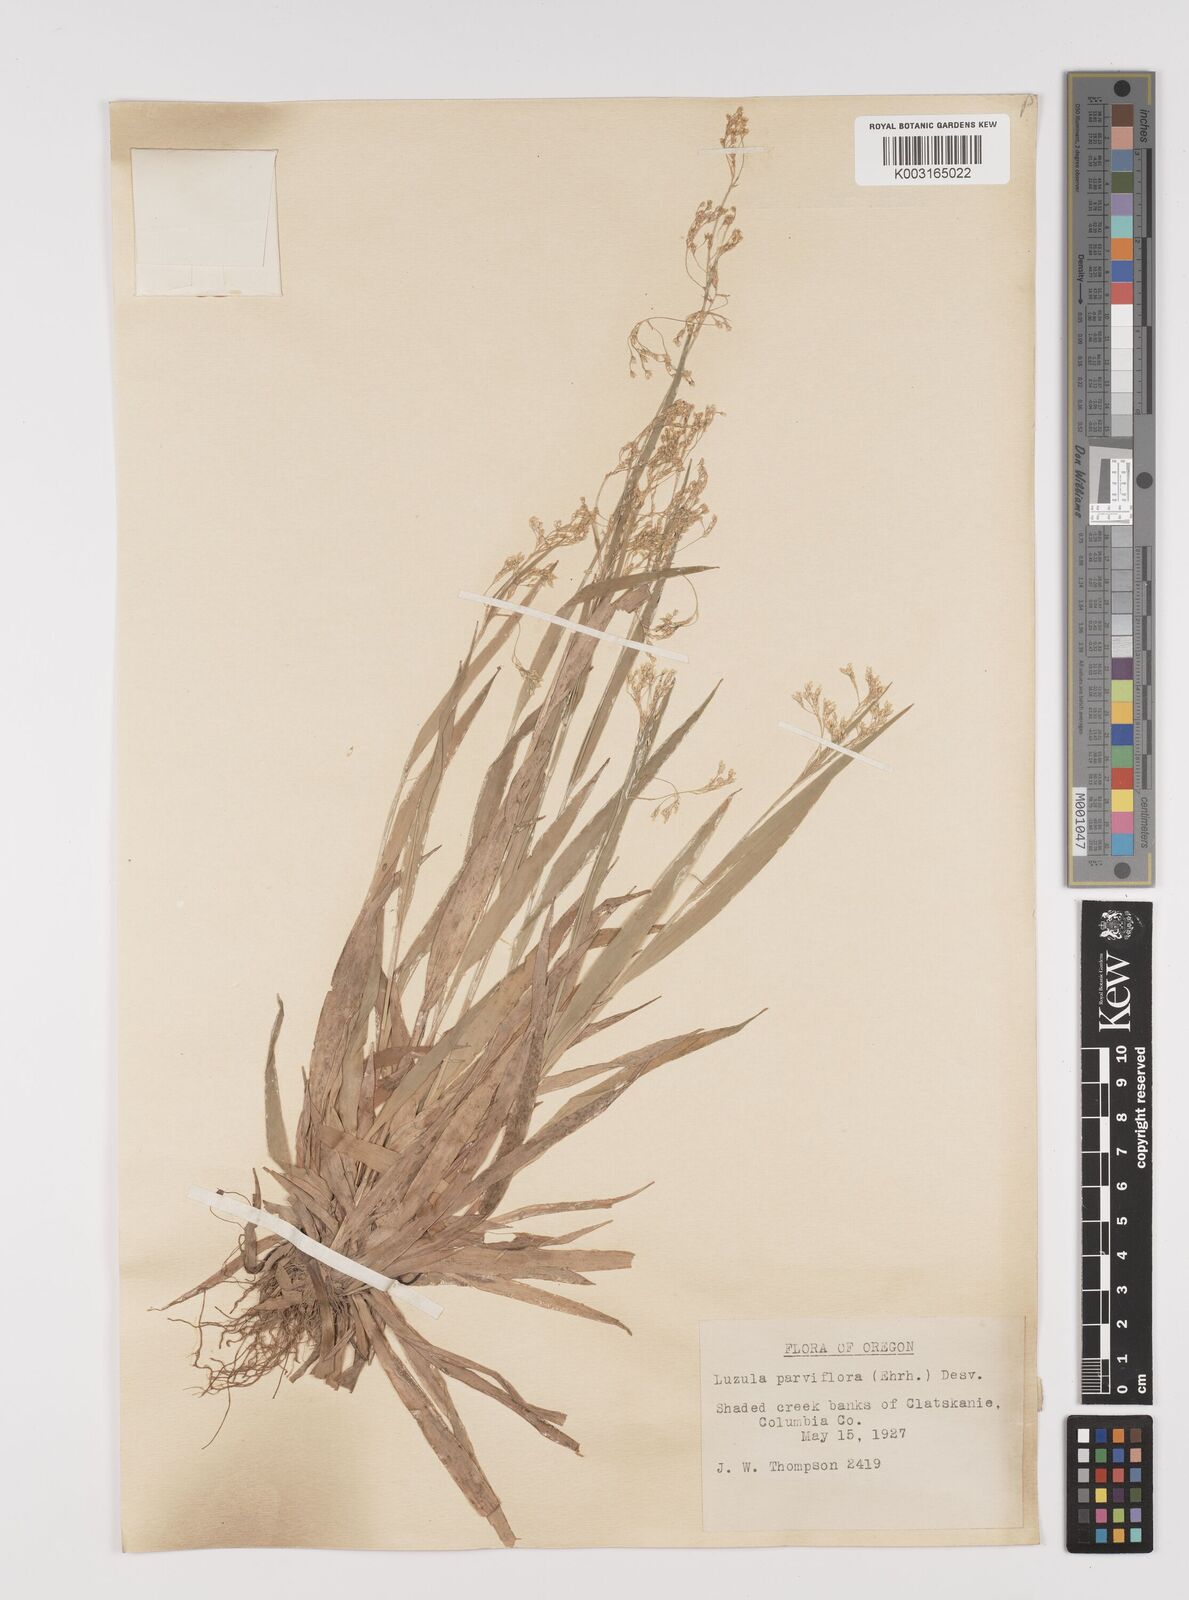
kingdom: Plantae
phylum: Tracheophyta
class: Liliopsida
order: Poales
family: Juncaceae
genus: Luzula
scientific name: Luzula parviflora
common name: Millet woodrush
